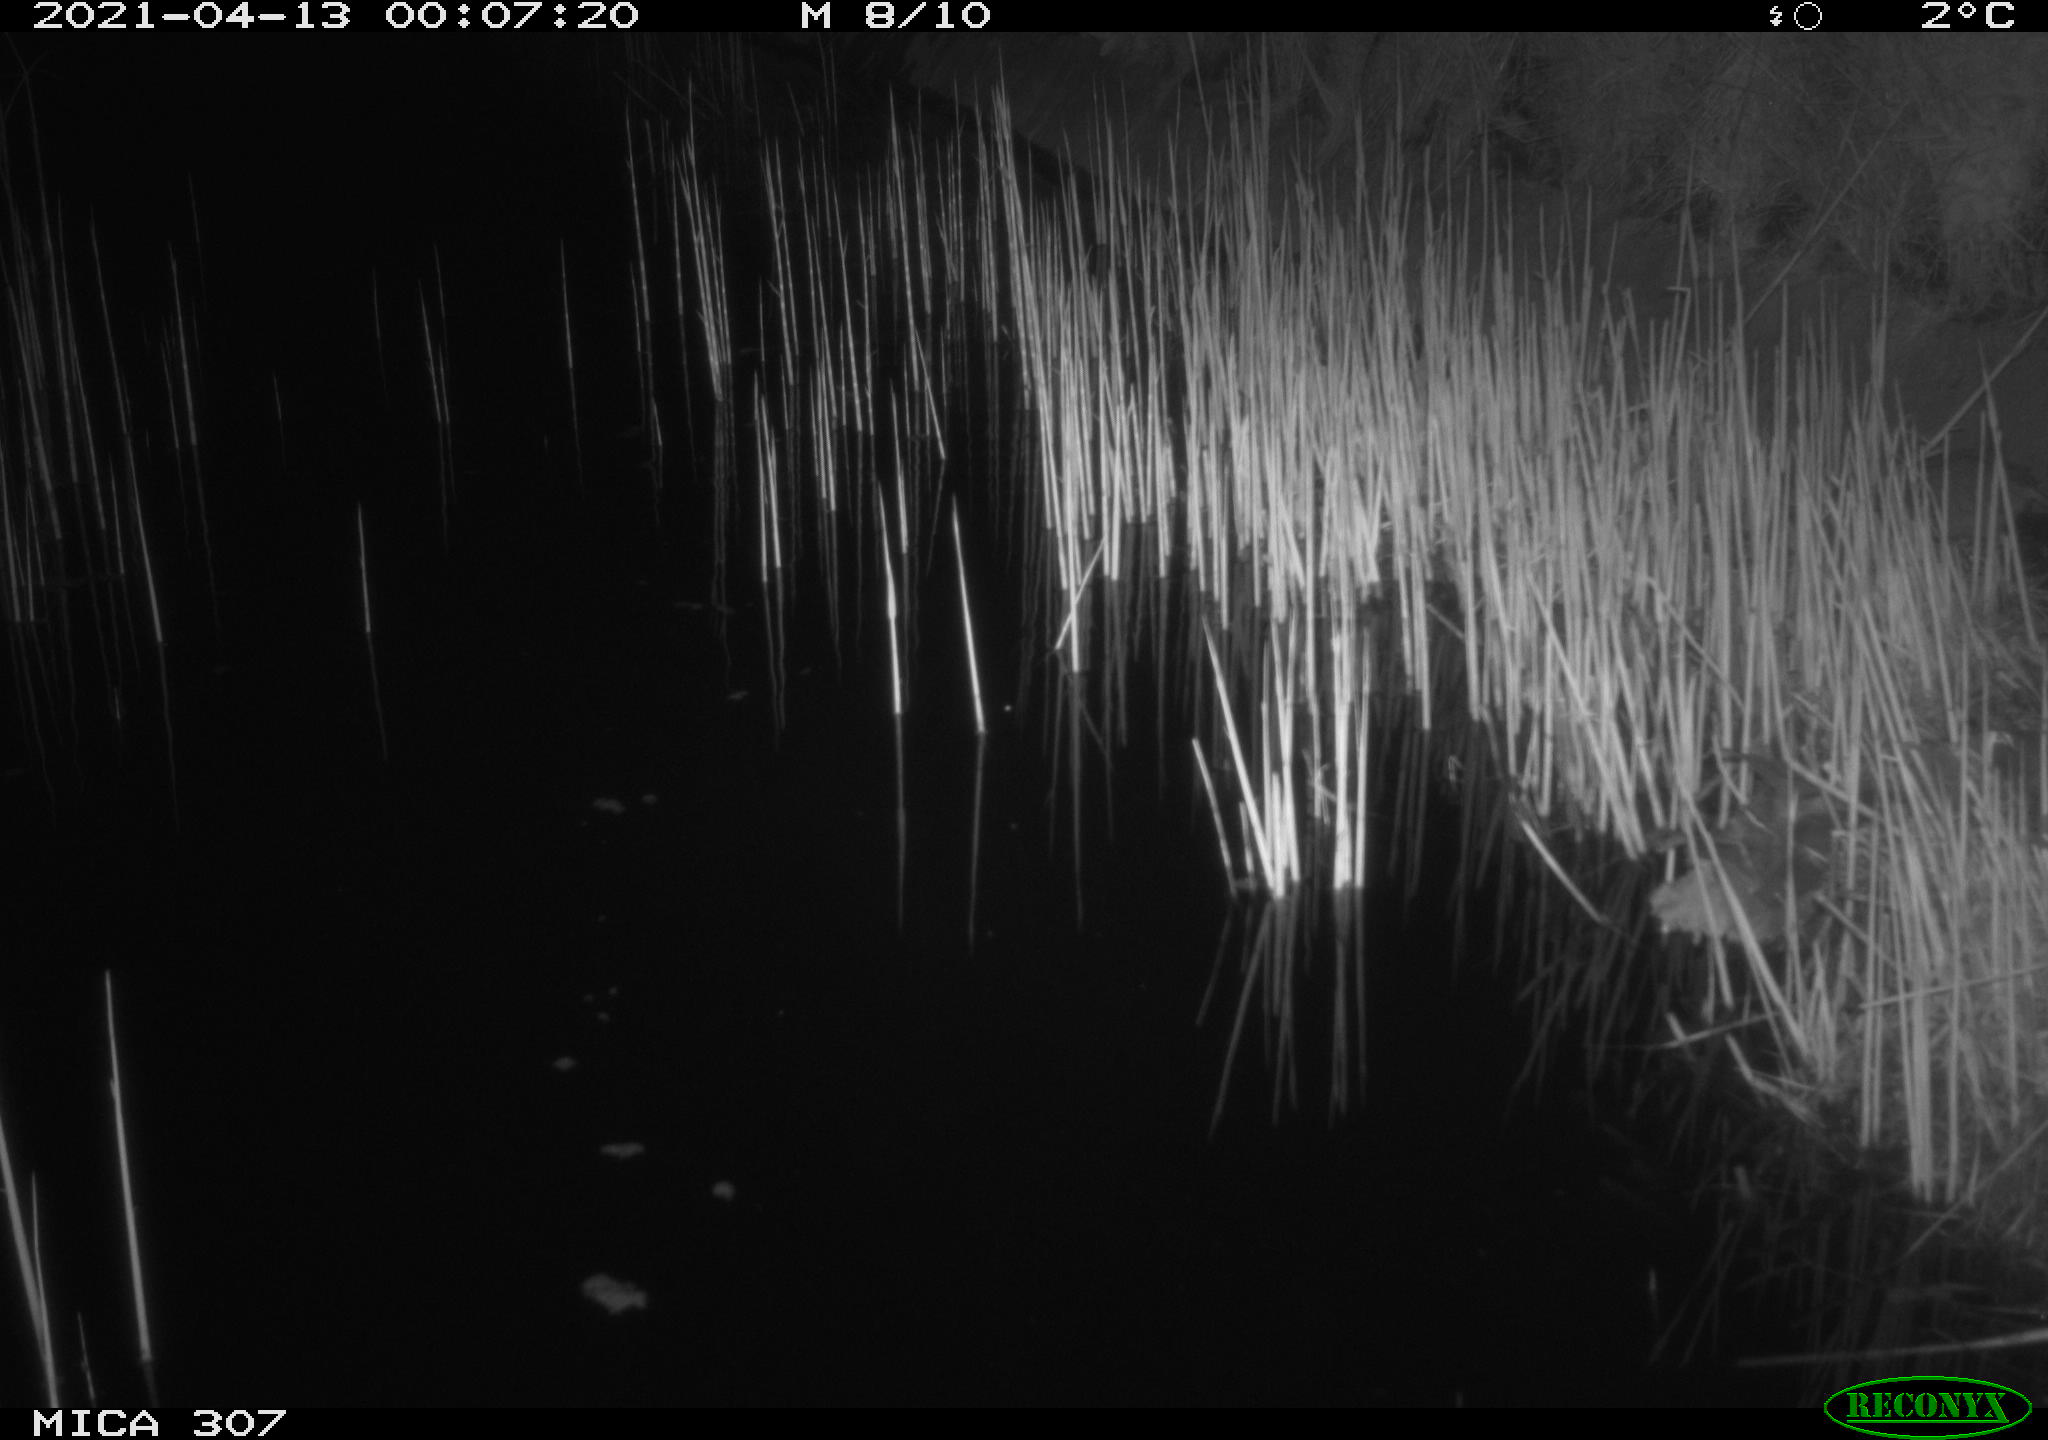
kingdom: Animalia
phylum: Chordata
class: Mammalia
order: Rodentia
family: Cricetidae
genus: Ondatra
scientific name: Ondatra zibethicus
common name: Muskrat
